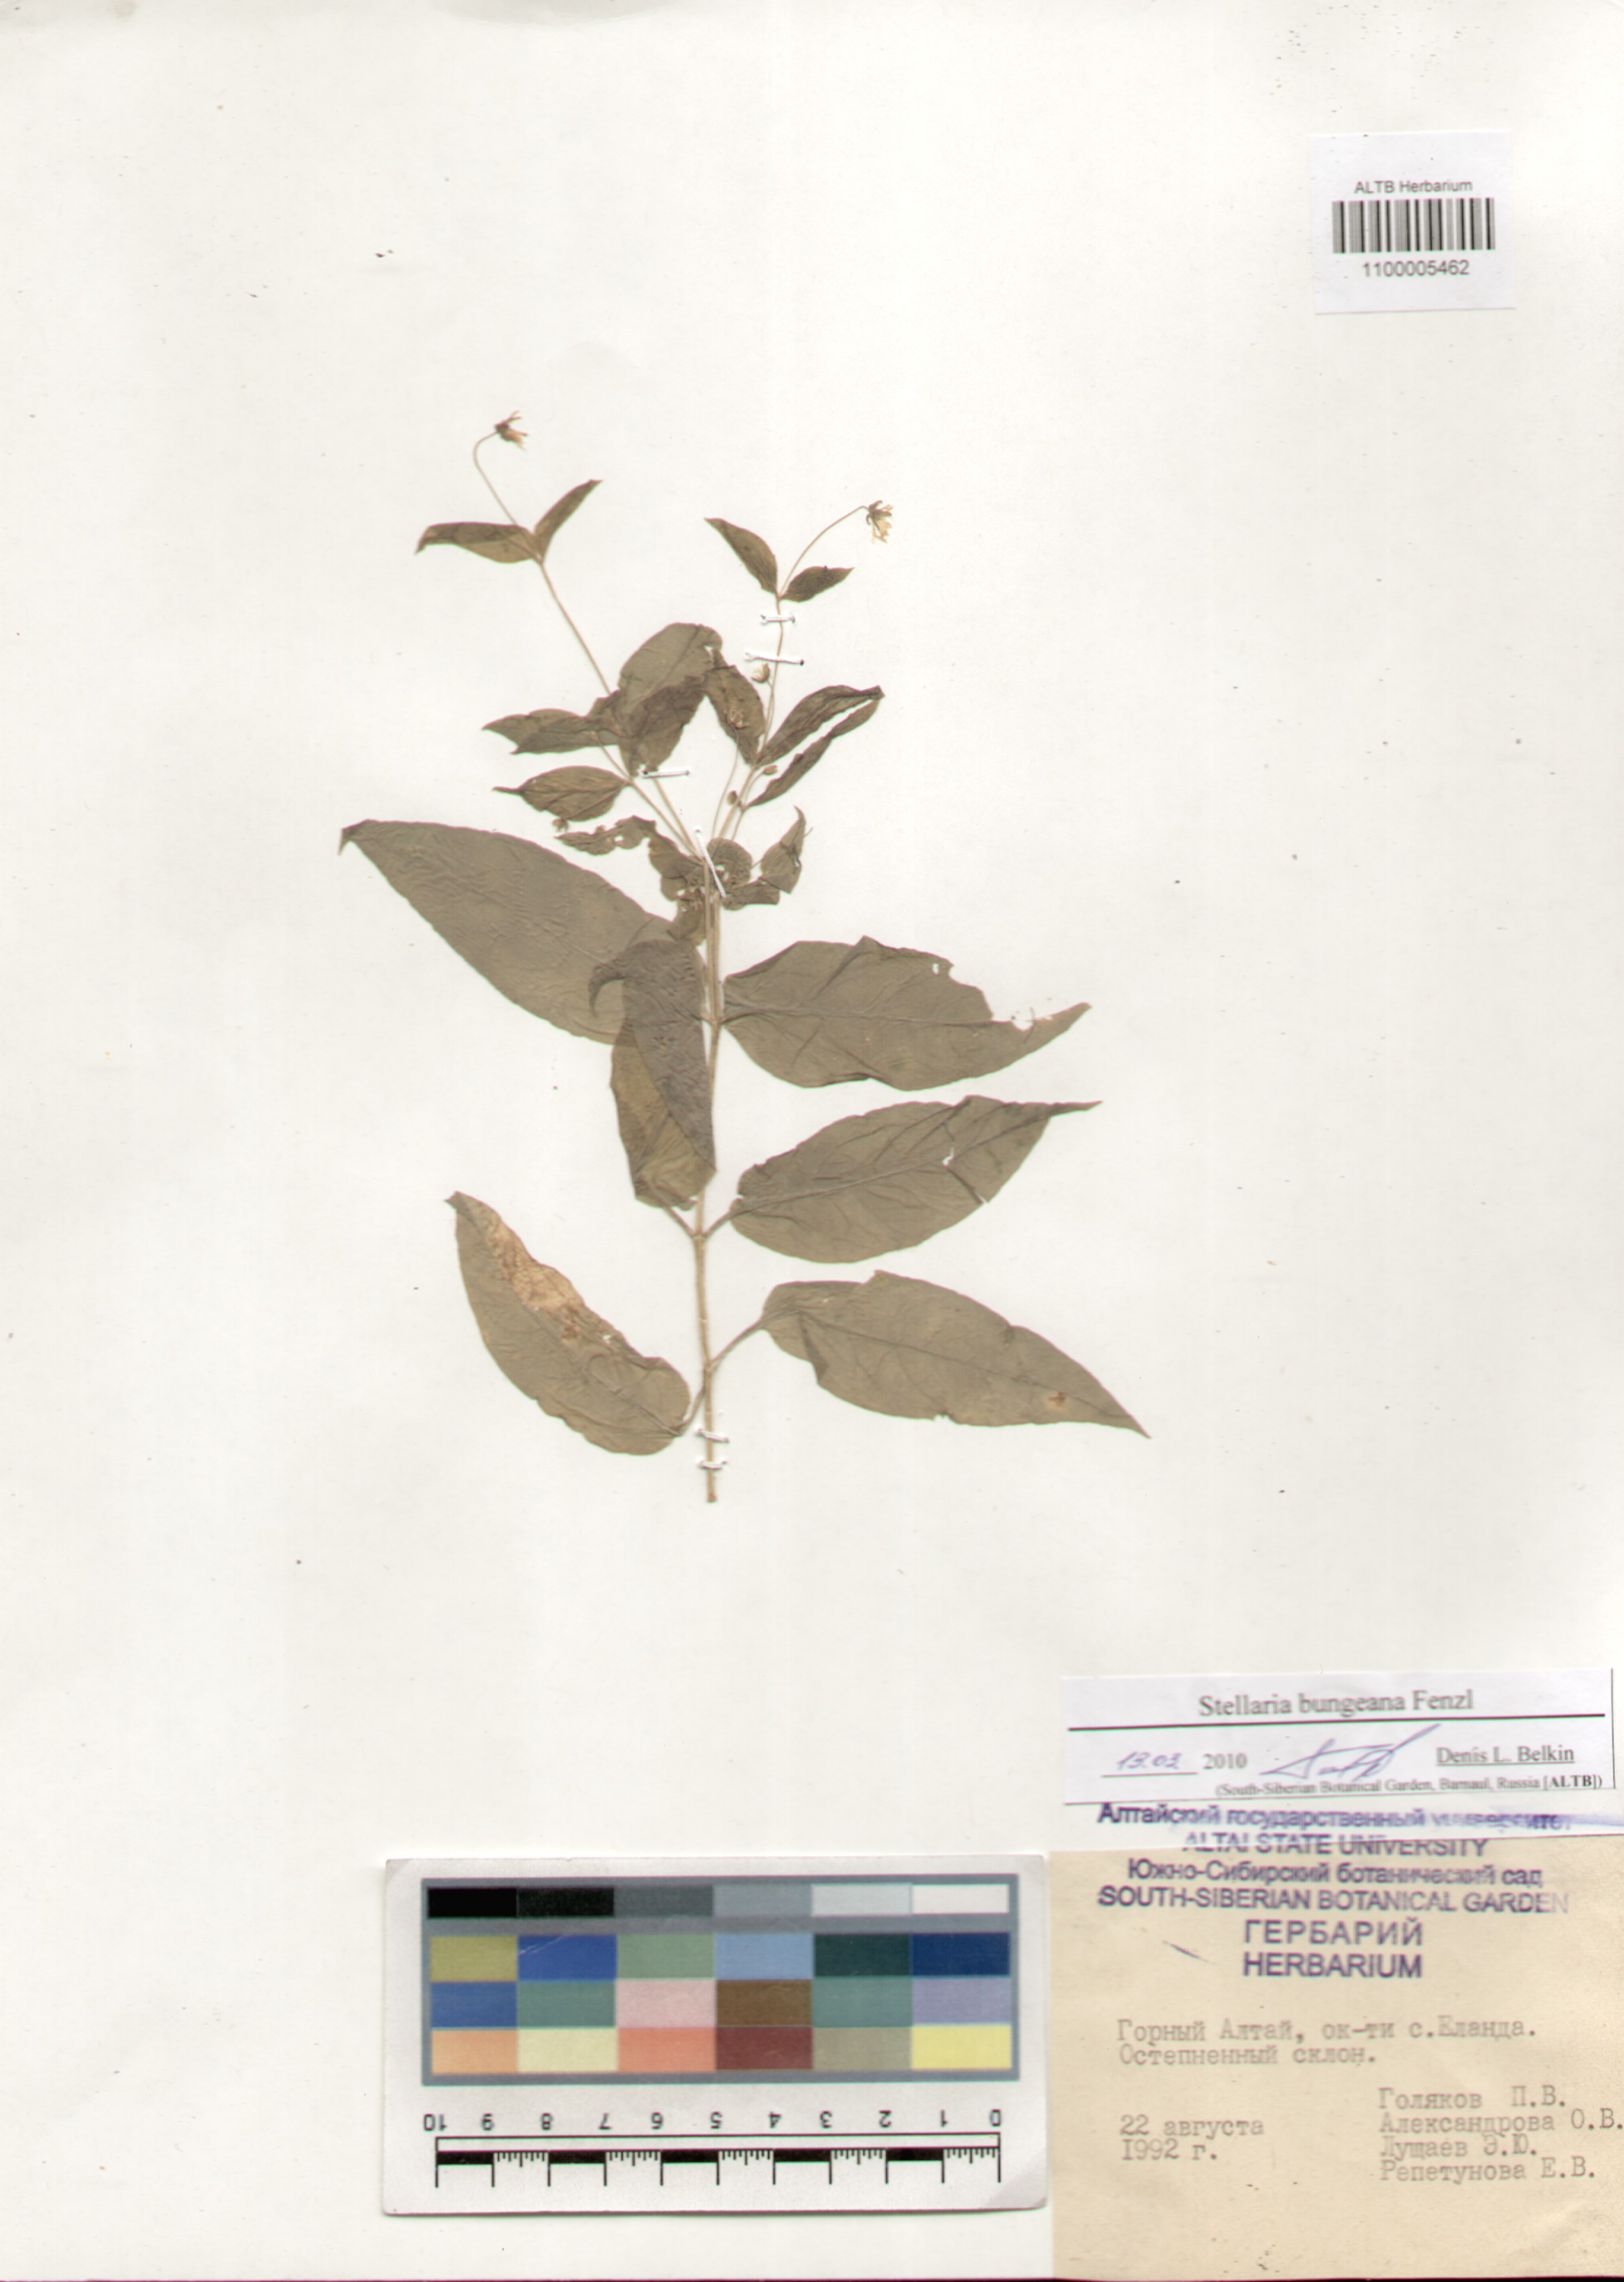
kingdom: Plantae
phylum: Tracheophyta
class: Magnoliopsida
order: Caryophyllales
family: Caryophyllaceae
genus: Stellaria
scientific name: Stellaria bungeana
